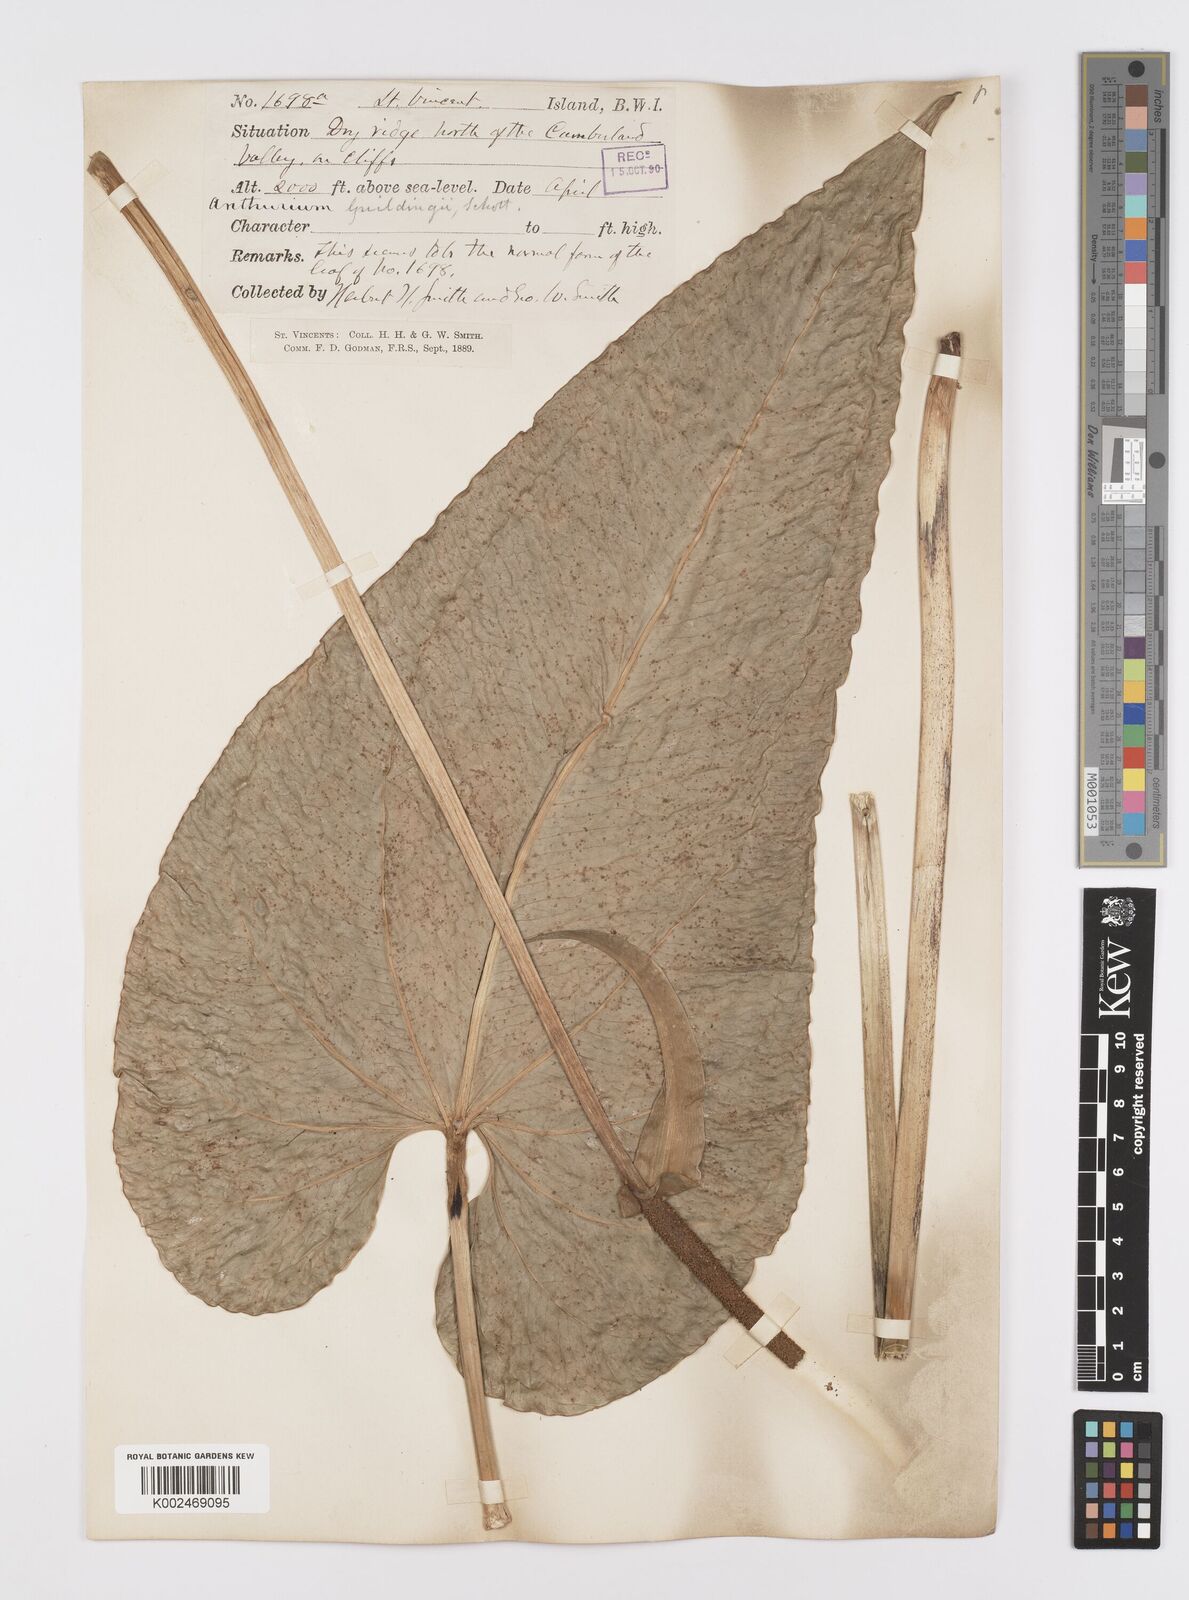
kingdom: Plantae
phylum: Tracheophyta
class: Liliopsida
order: Alismatales
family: Araceae
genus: Anthurium
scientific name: Anthurium
